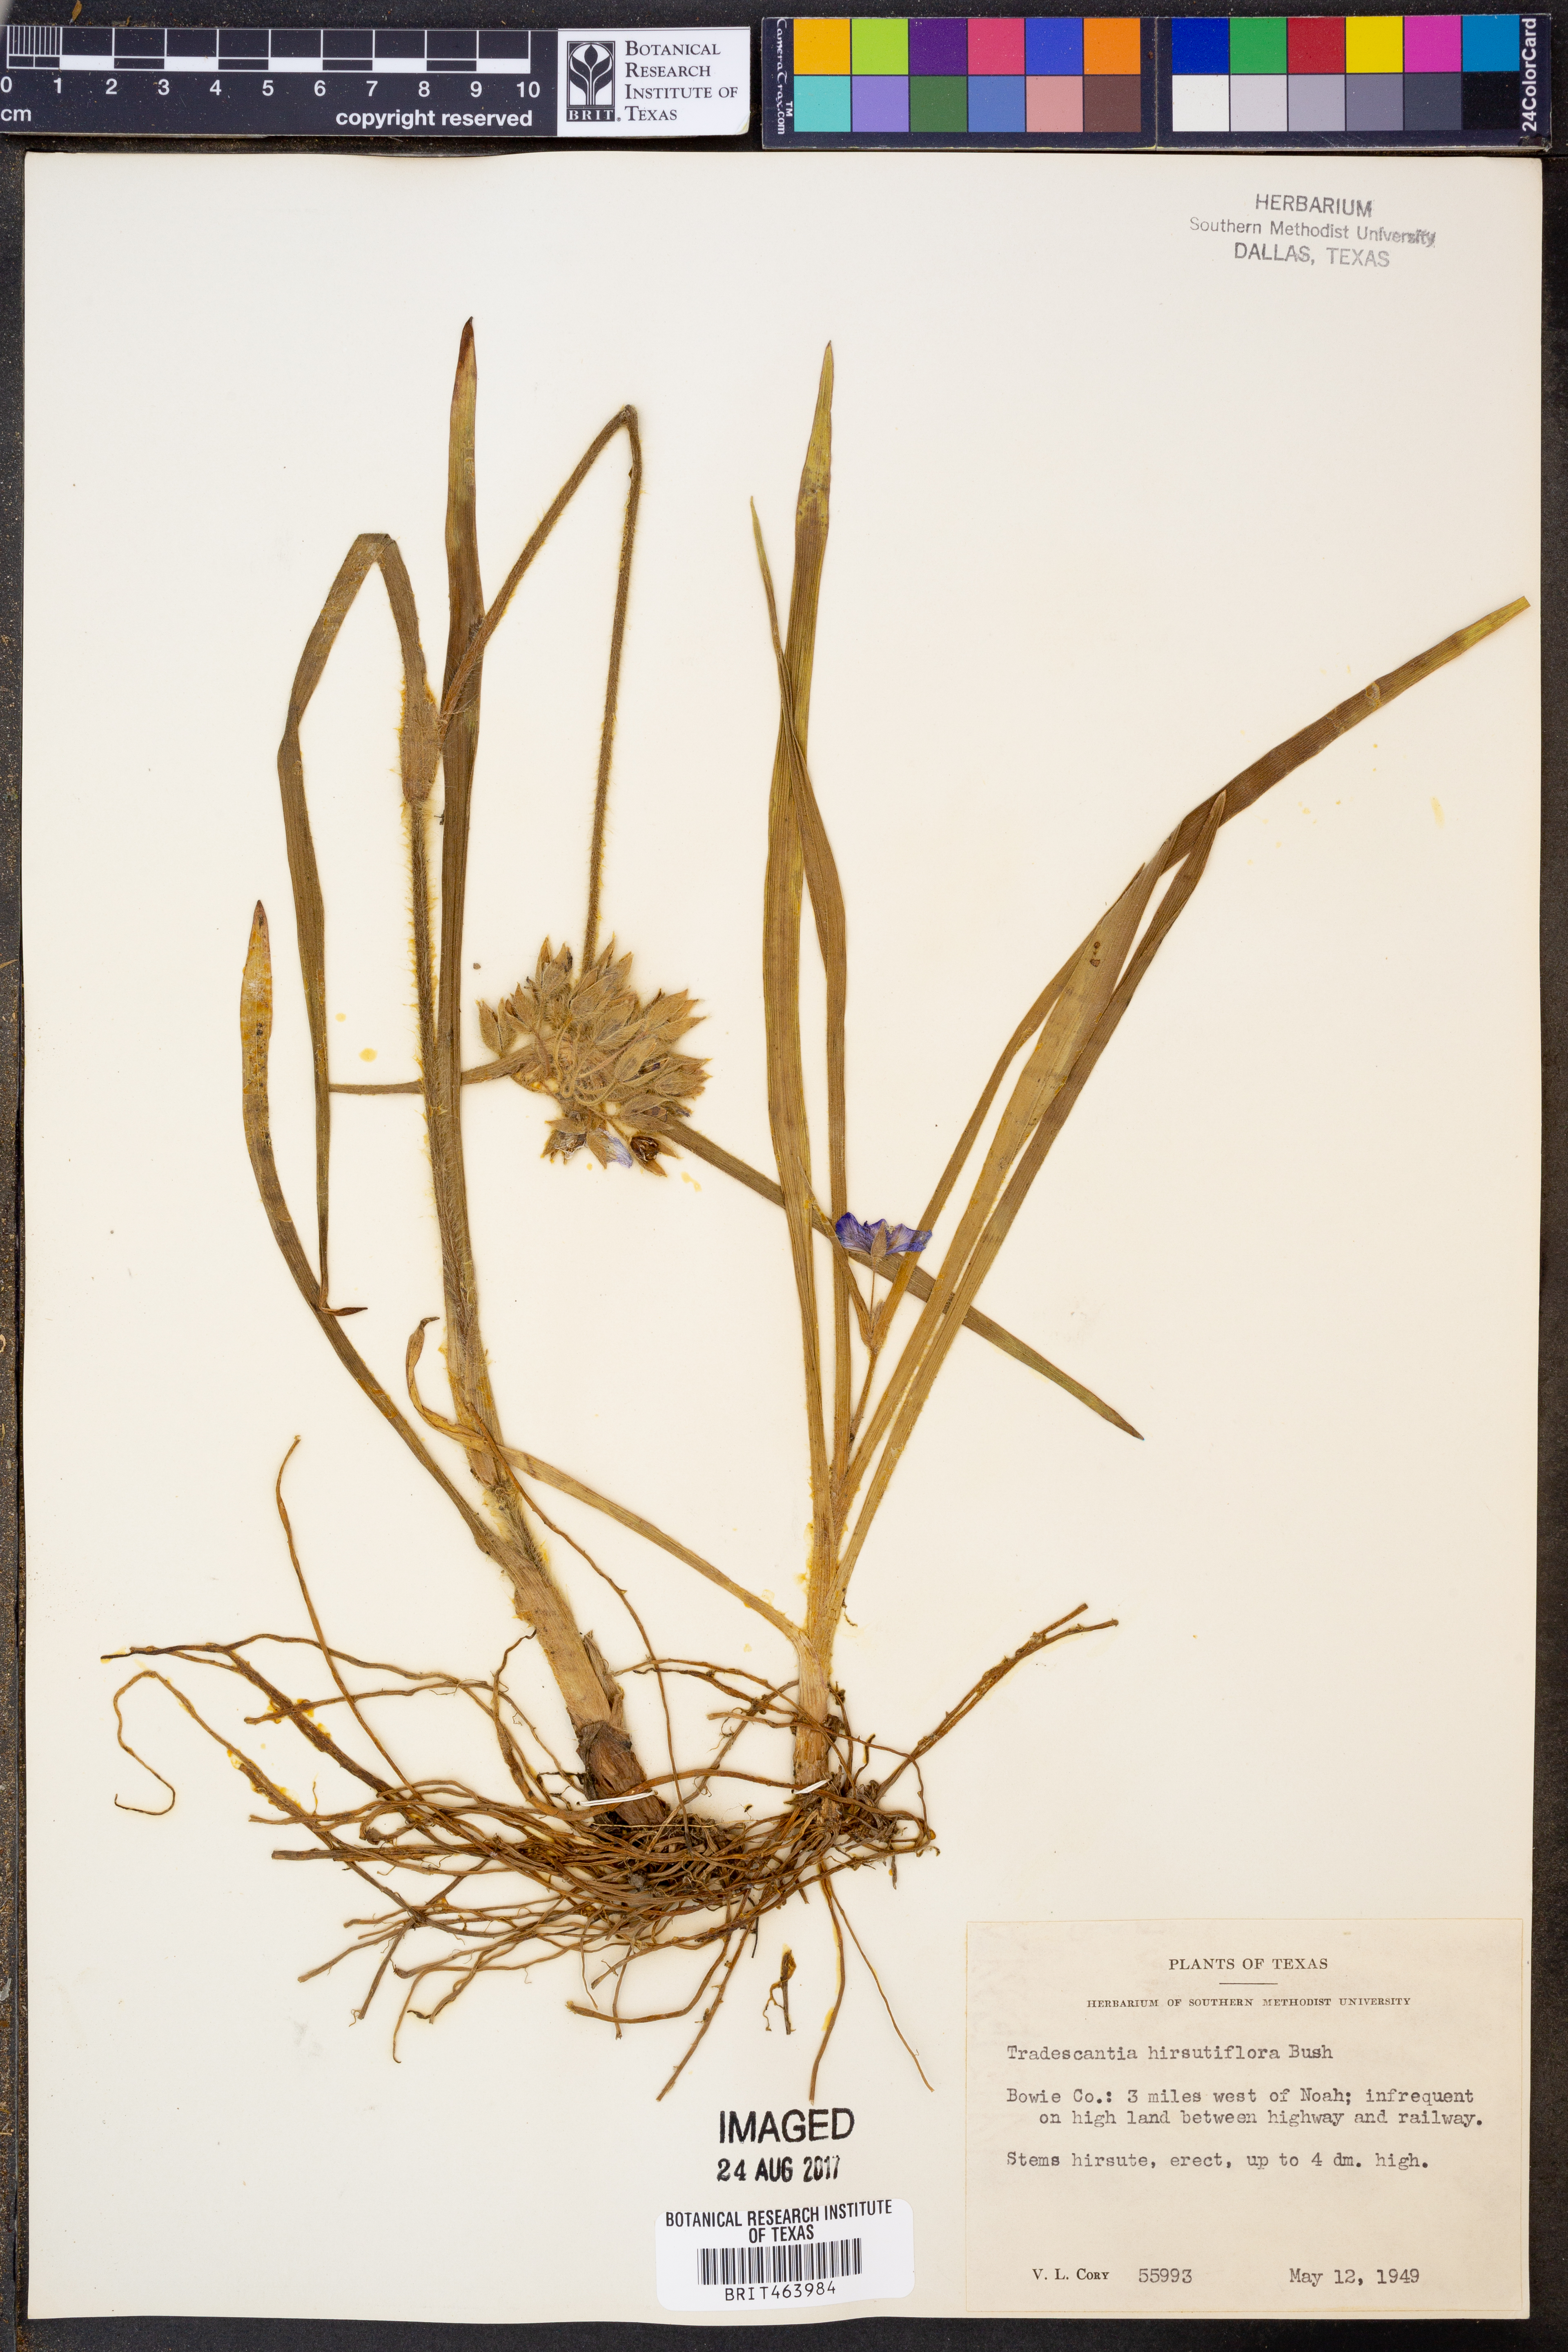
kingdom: Plantae
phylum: Tracheophyta
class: Liliopsida
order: Commelinales
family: Commelinaceae
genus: Tradescantia
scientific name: Tradescantia hirsutiflora
